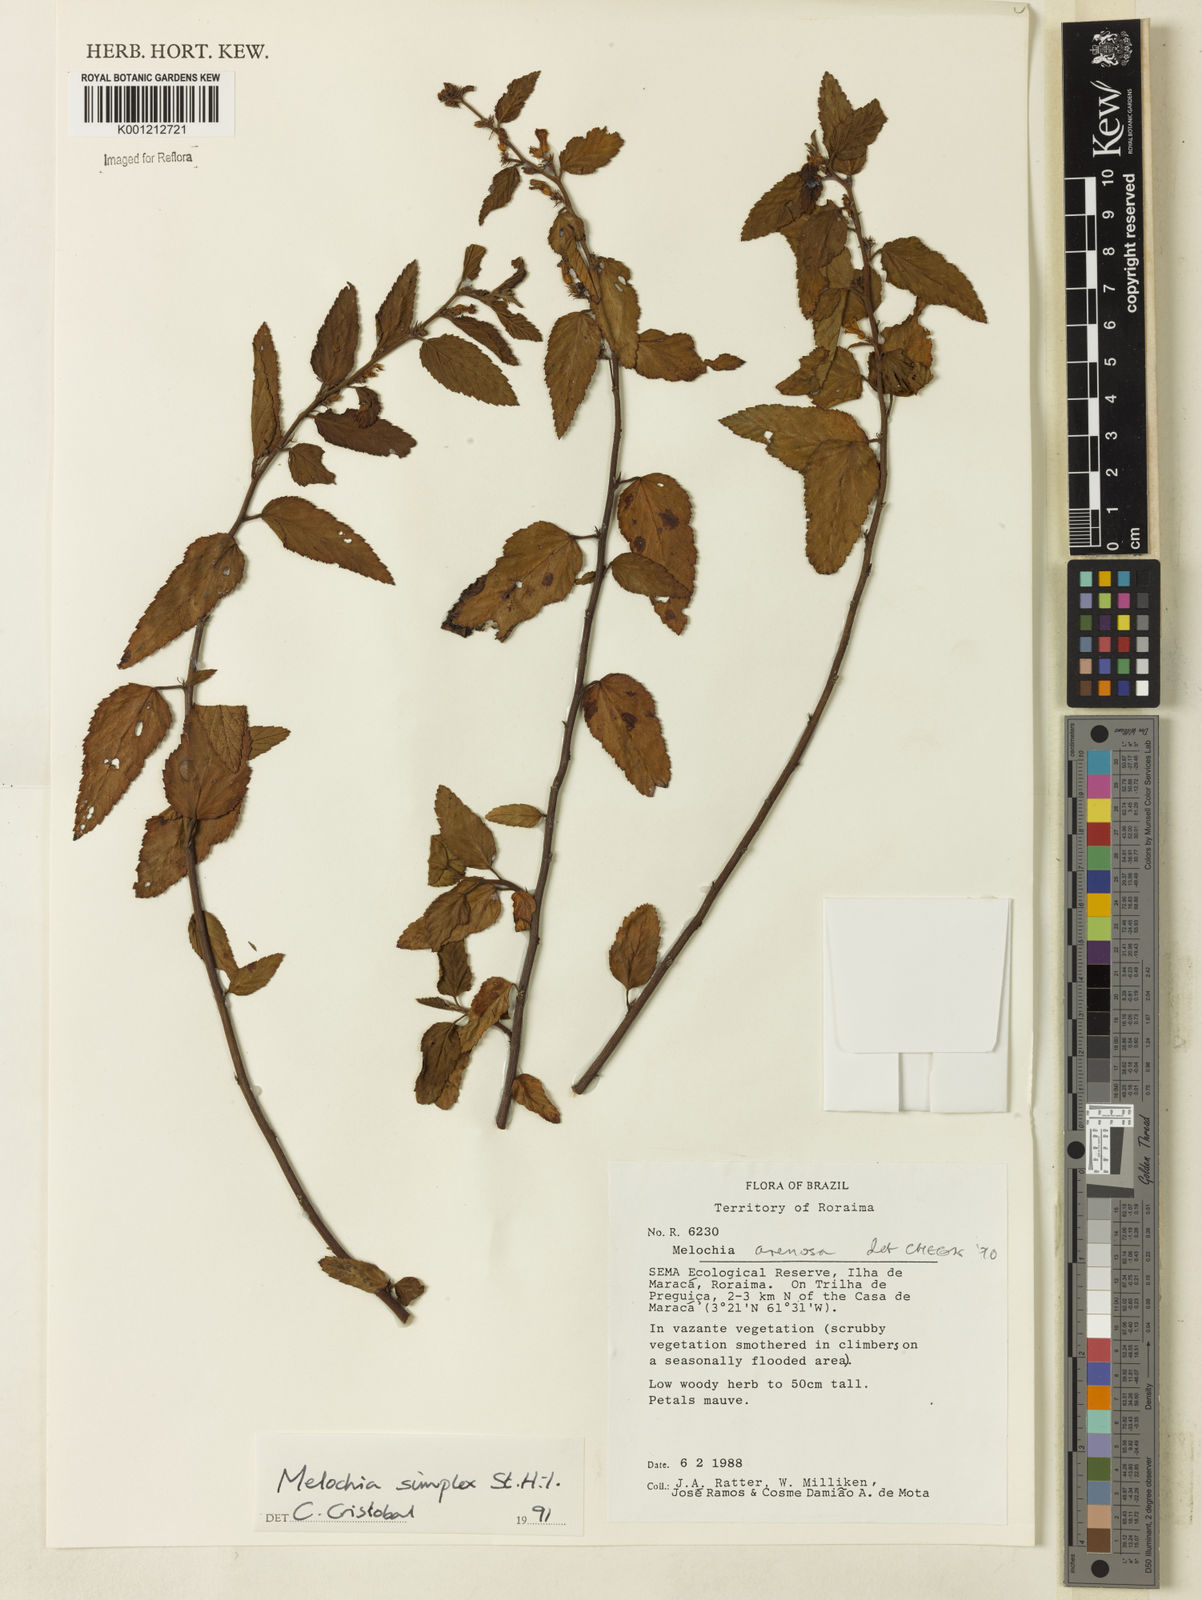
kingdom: Plantae
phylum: Tracheophyta
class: Magnoliopsida
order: Malvales
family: Malvaceae
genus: Melochia
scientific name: Melochia simplex
